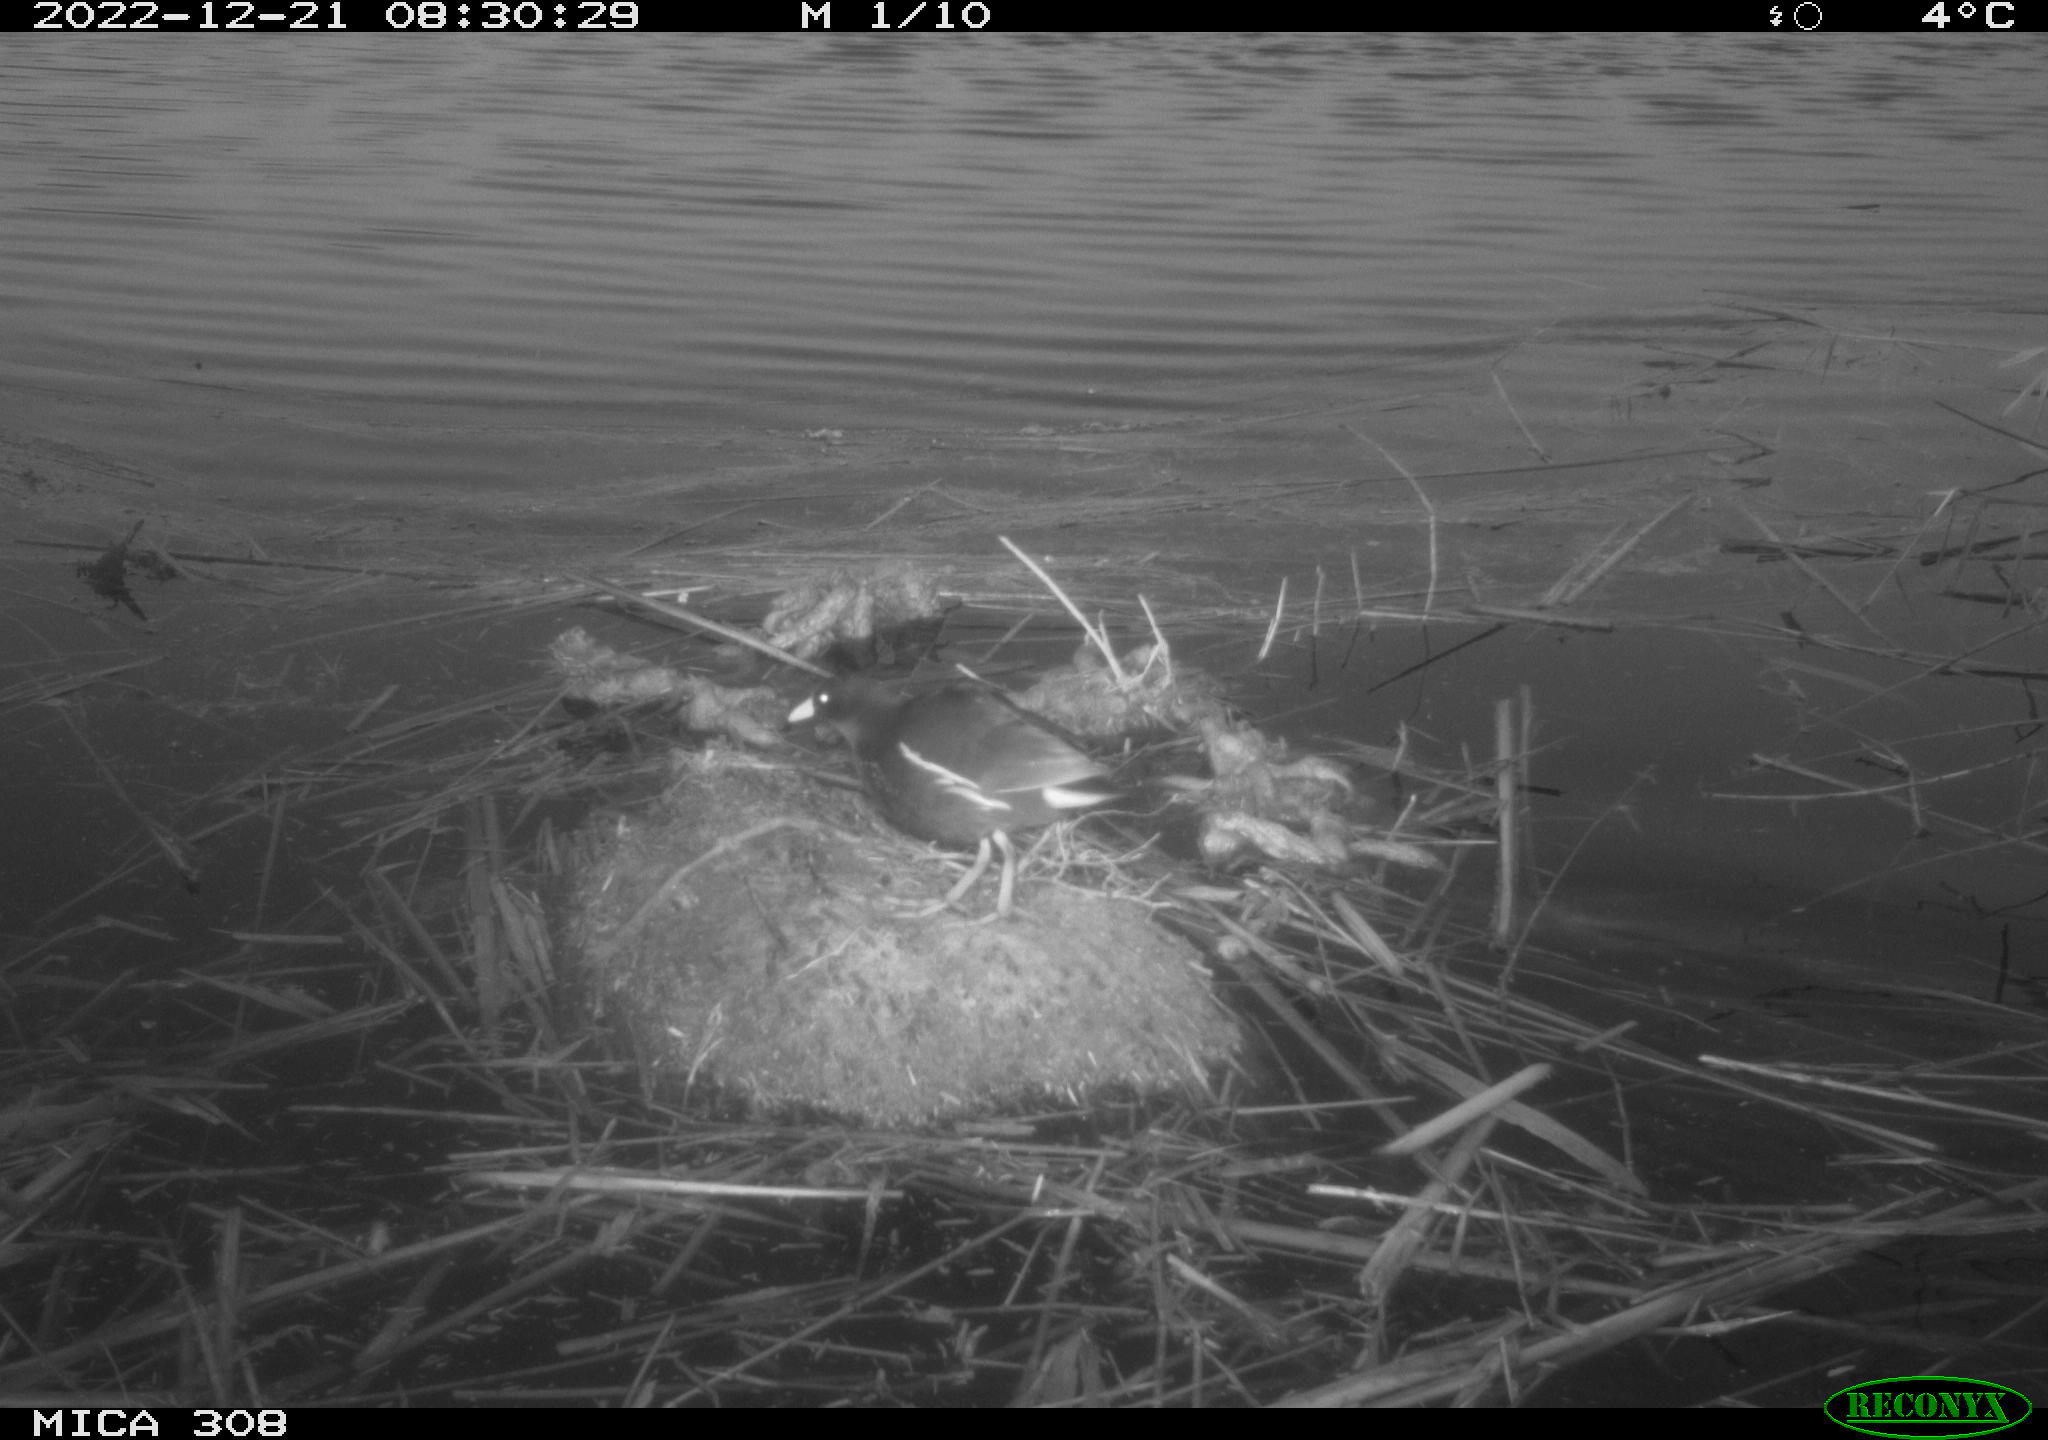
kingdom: Animalia
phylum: Chordata
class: Aves
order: Gruiformes
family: Rallidae
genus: Gallinula
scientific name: Gallinula chloropus
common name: Common moorhen
